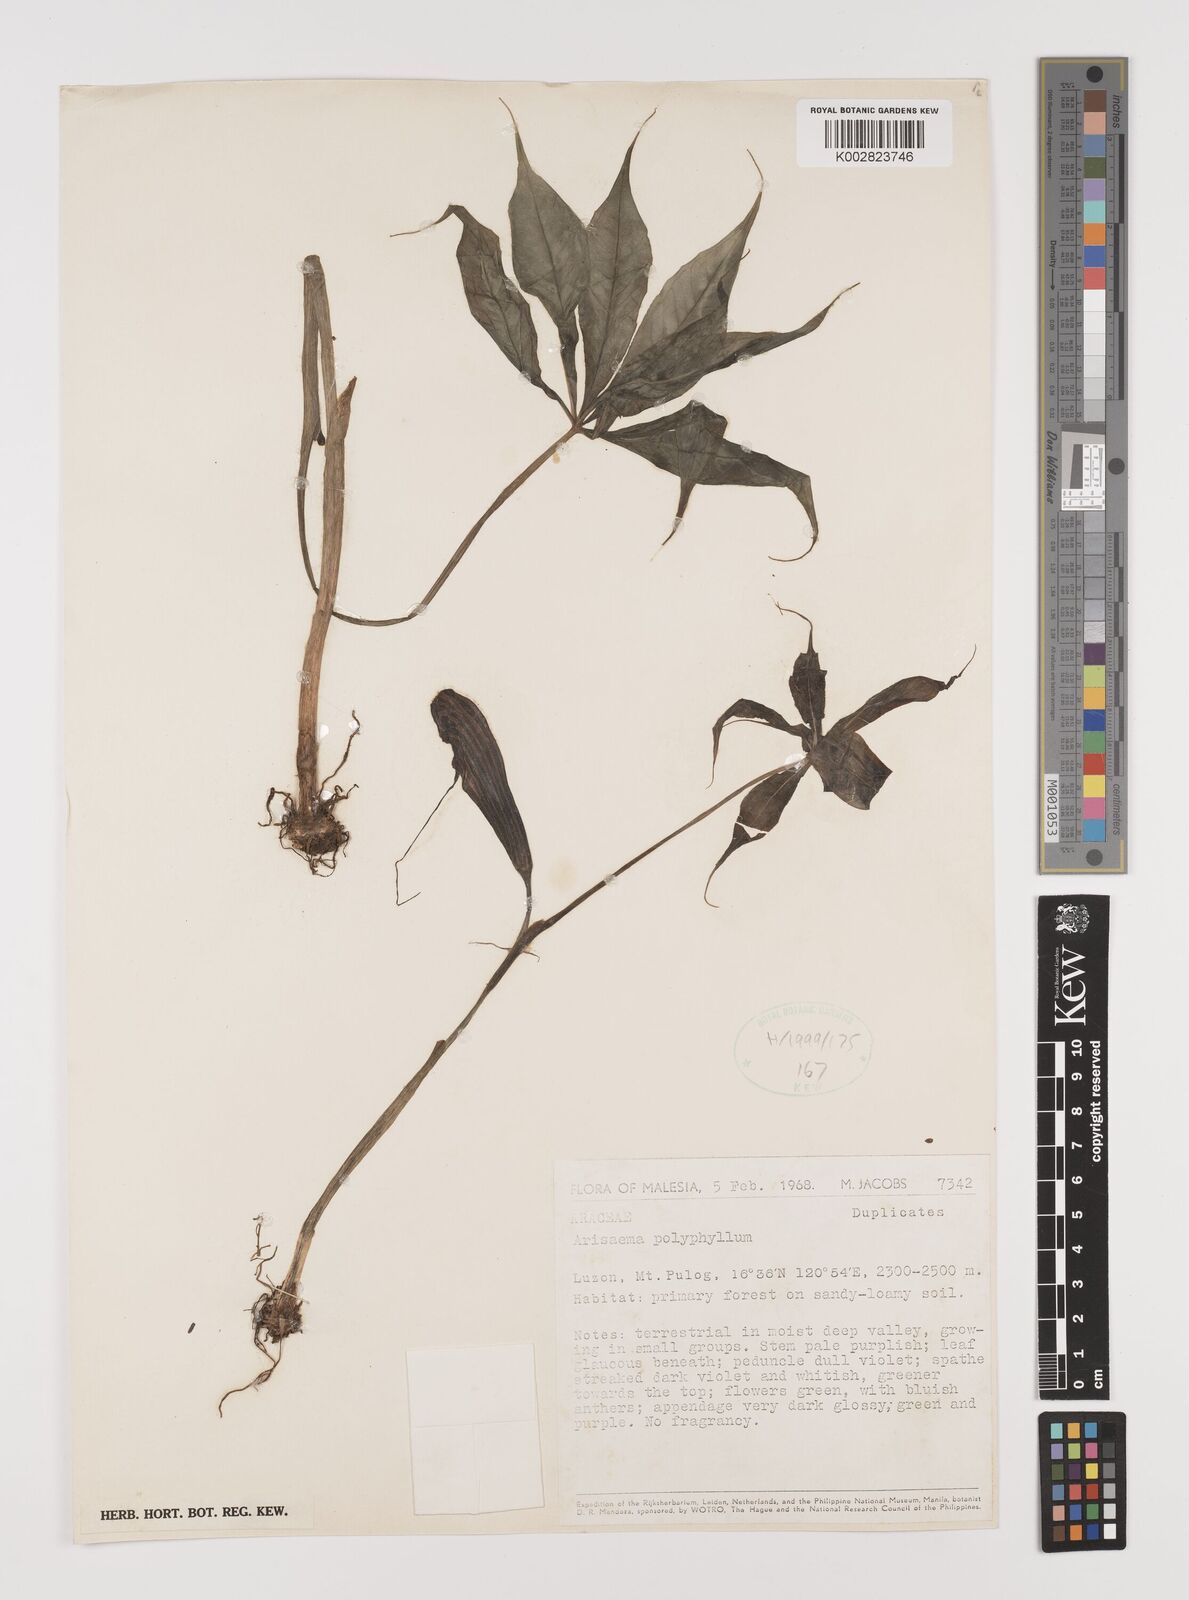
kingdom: Plantae
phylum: Tracheophyta
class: Liliopsida
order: Alismatales
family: Araceae
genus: Arisaema
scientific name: Arisaema polyphyllum
